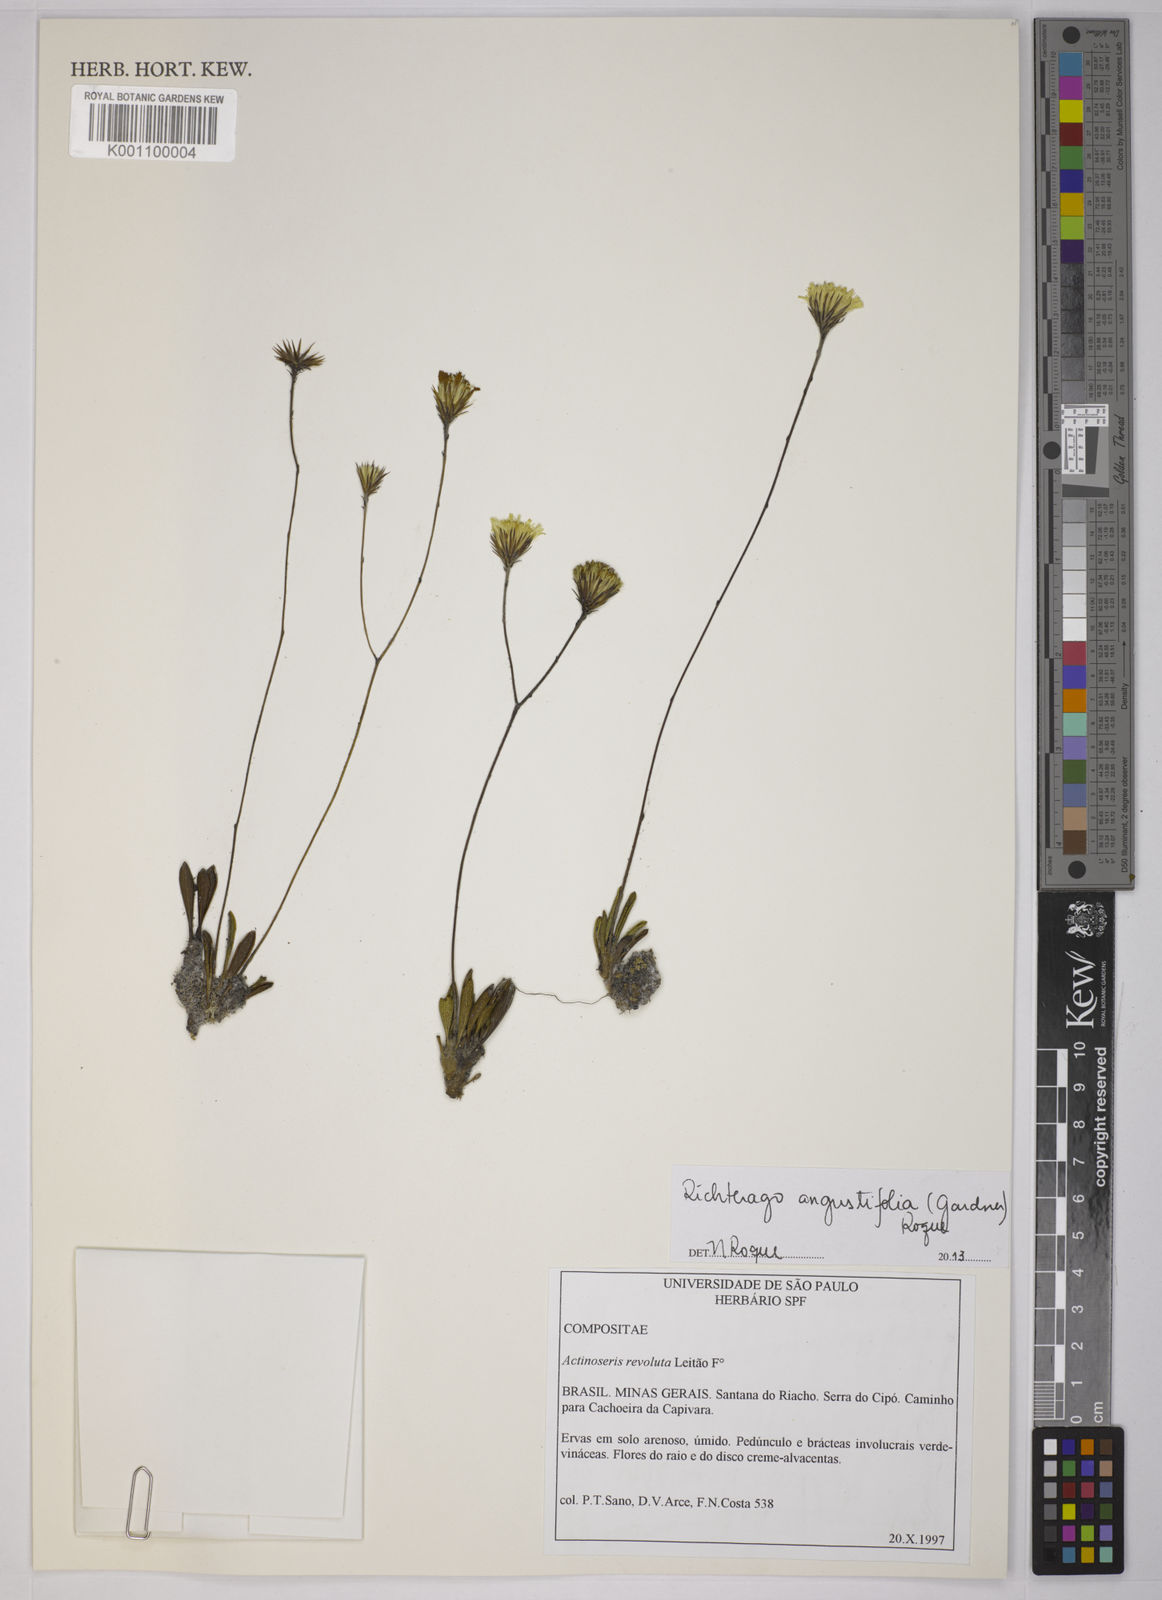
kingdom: Plantae
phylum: Tracheophyta
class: Magnoliopsida
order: Asterales
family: Asteraceae
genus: Richterago
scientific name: Richterago angustifolia
